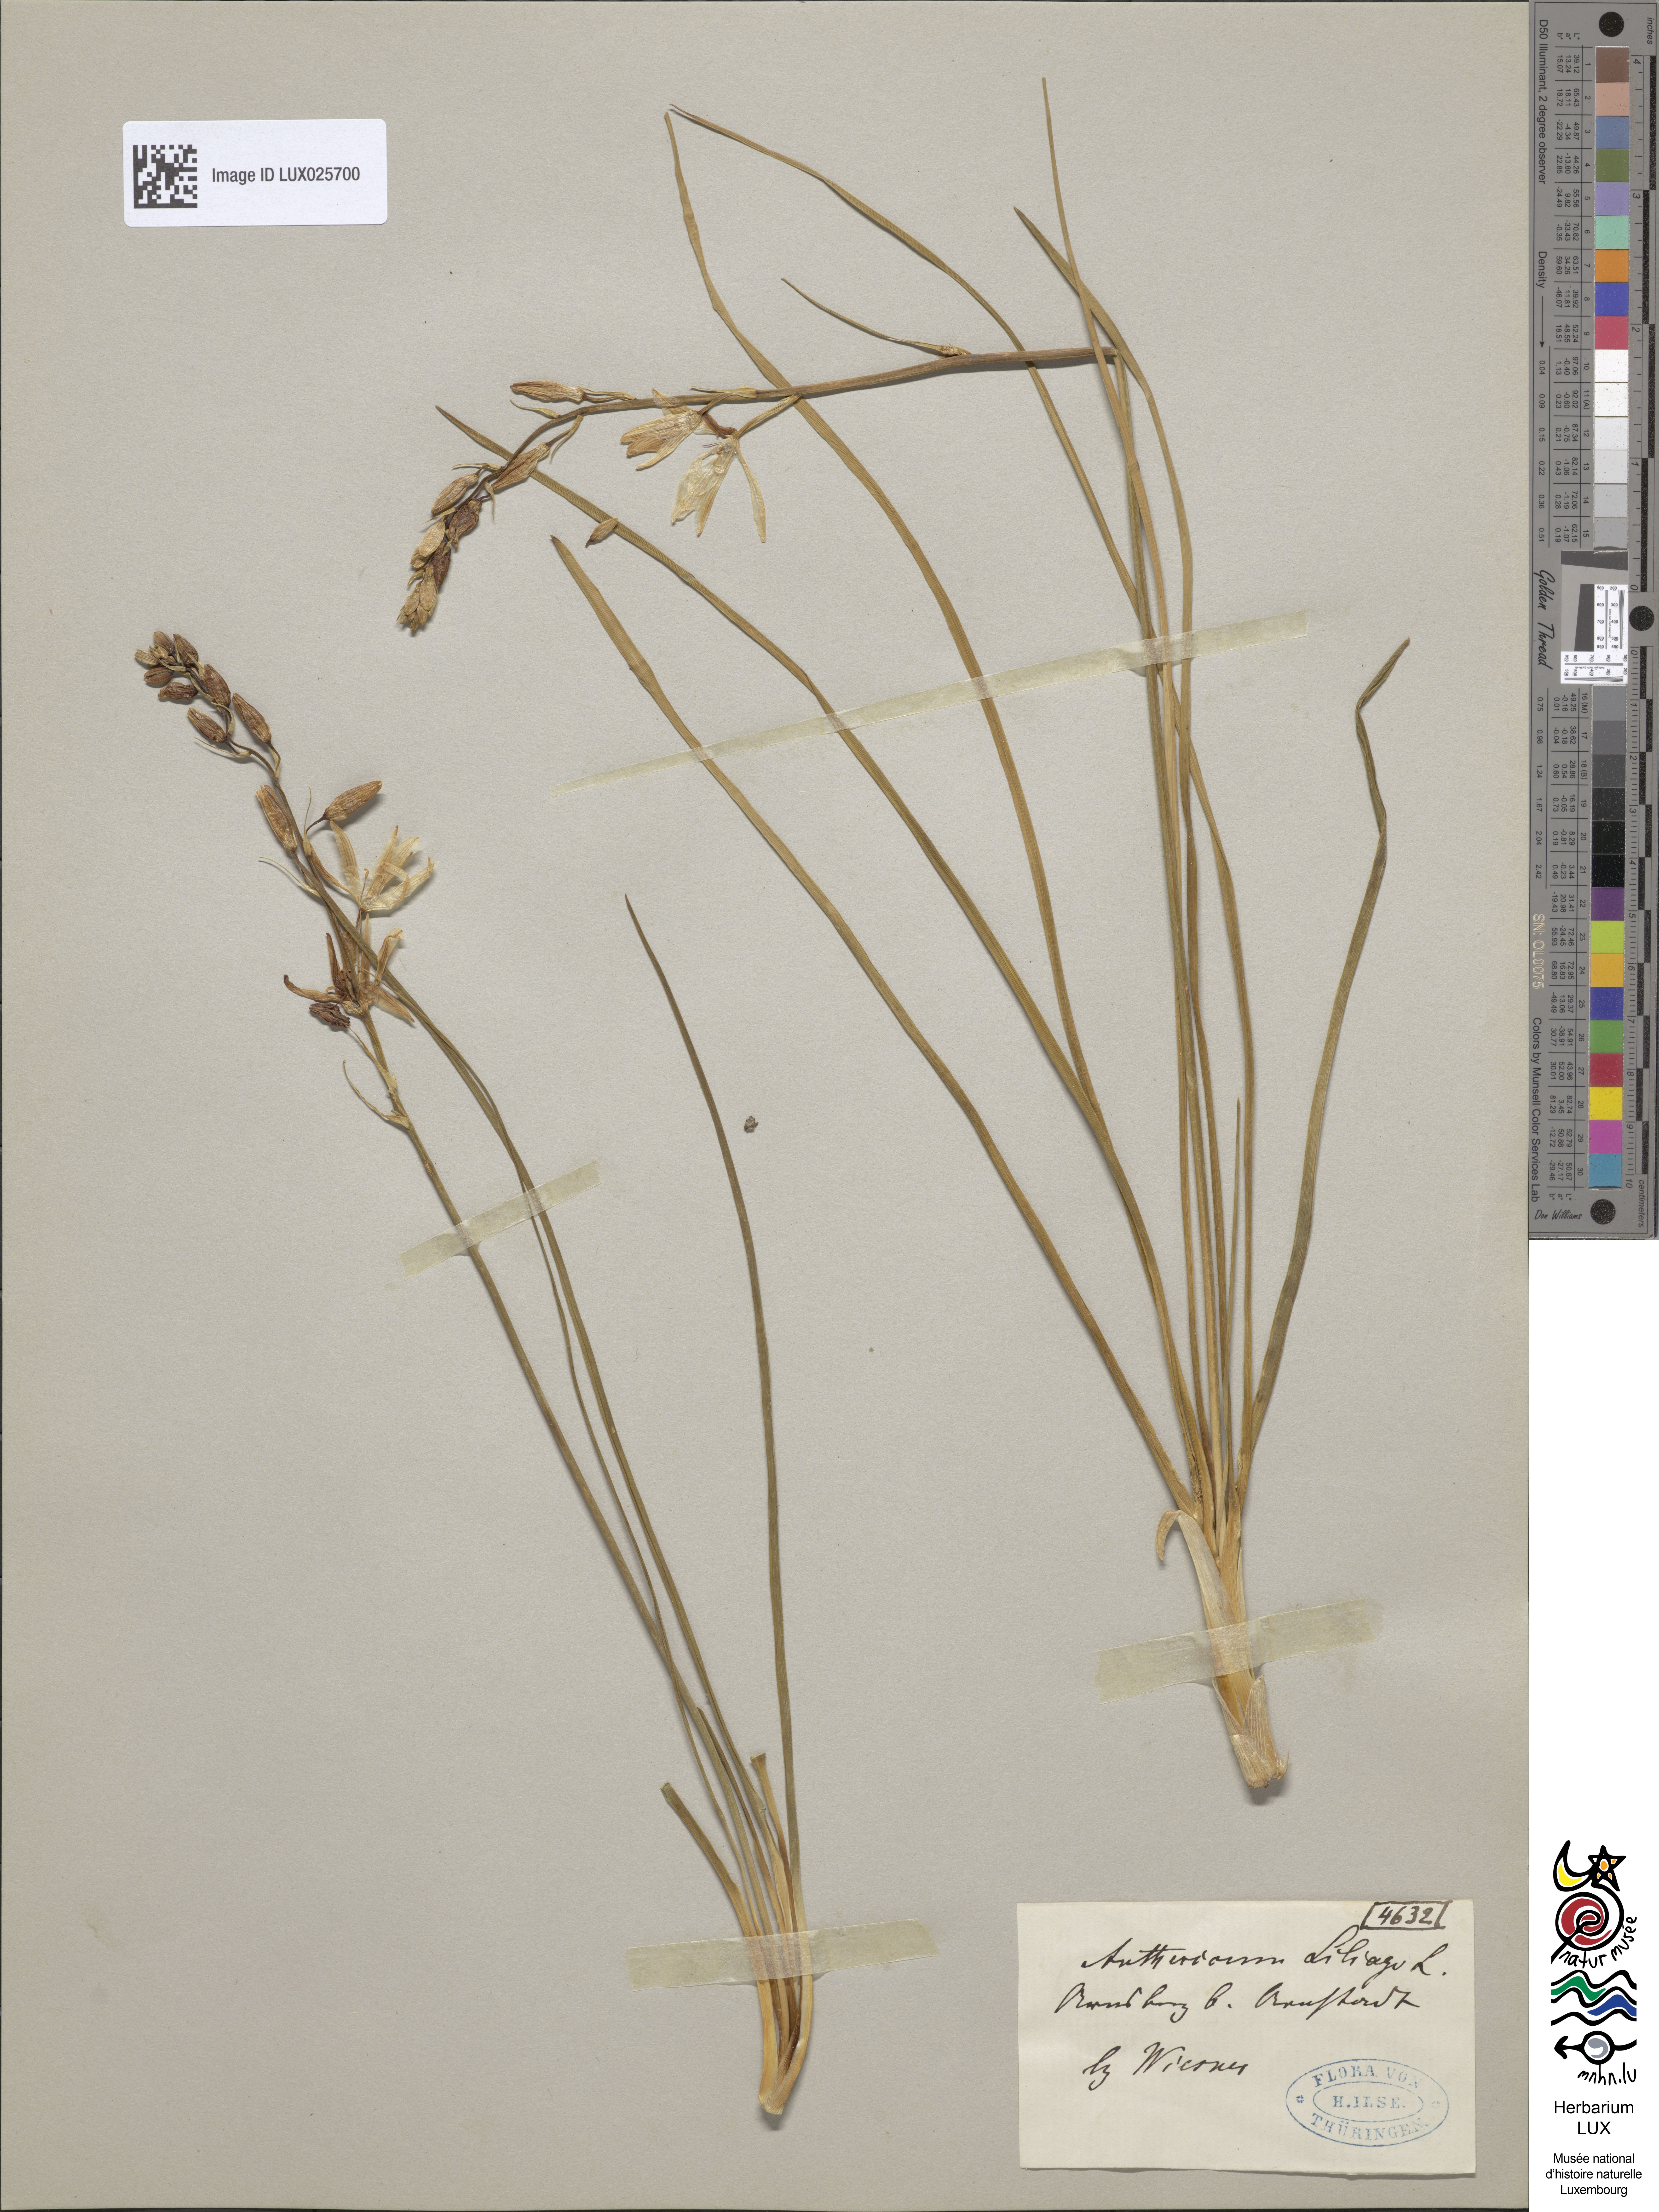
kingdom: Plantae
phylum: Tracheophyta
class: Liliopsida
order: Asparagales
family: Asparagaceae
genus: Anthericum
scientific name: Anthericum liliago
